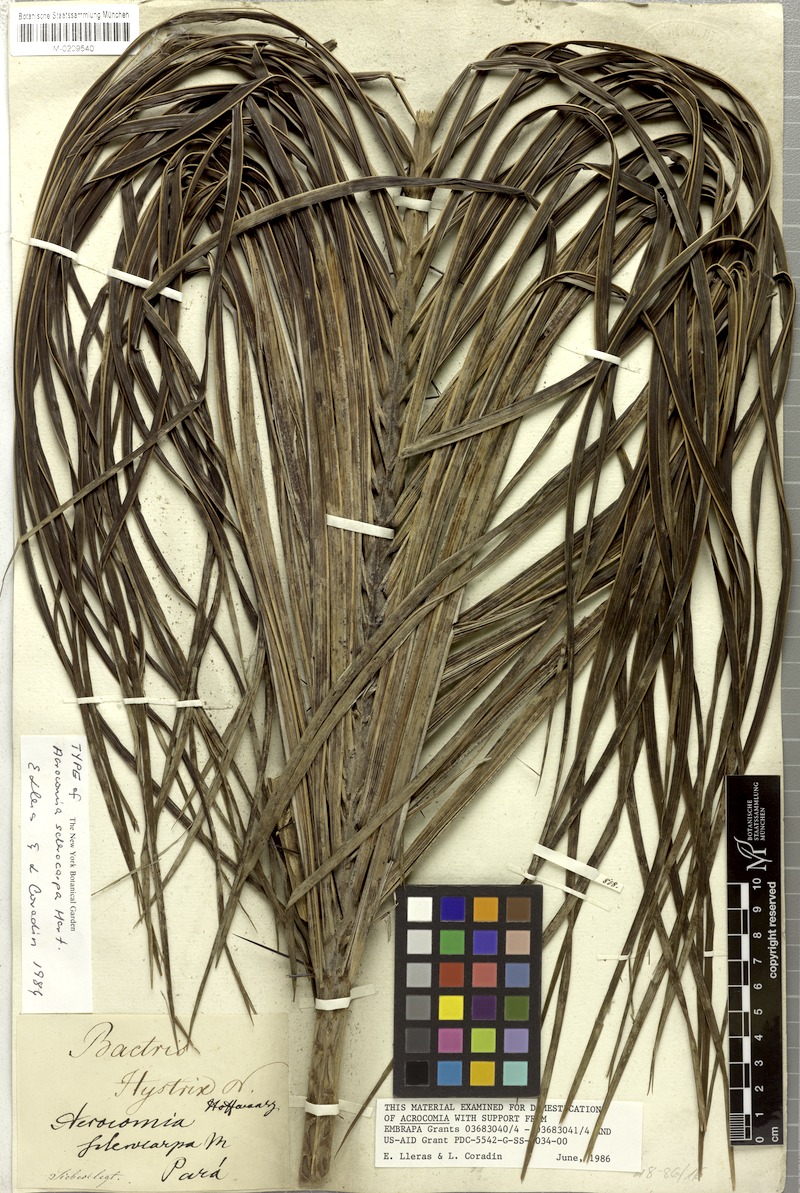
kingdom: Plantae
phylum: Tracheophyta
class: Liliopsida
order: Arecales
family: Arecaceae
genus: Acrocomia
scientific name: Acrocomia aculeata
